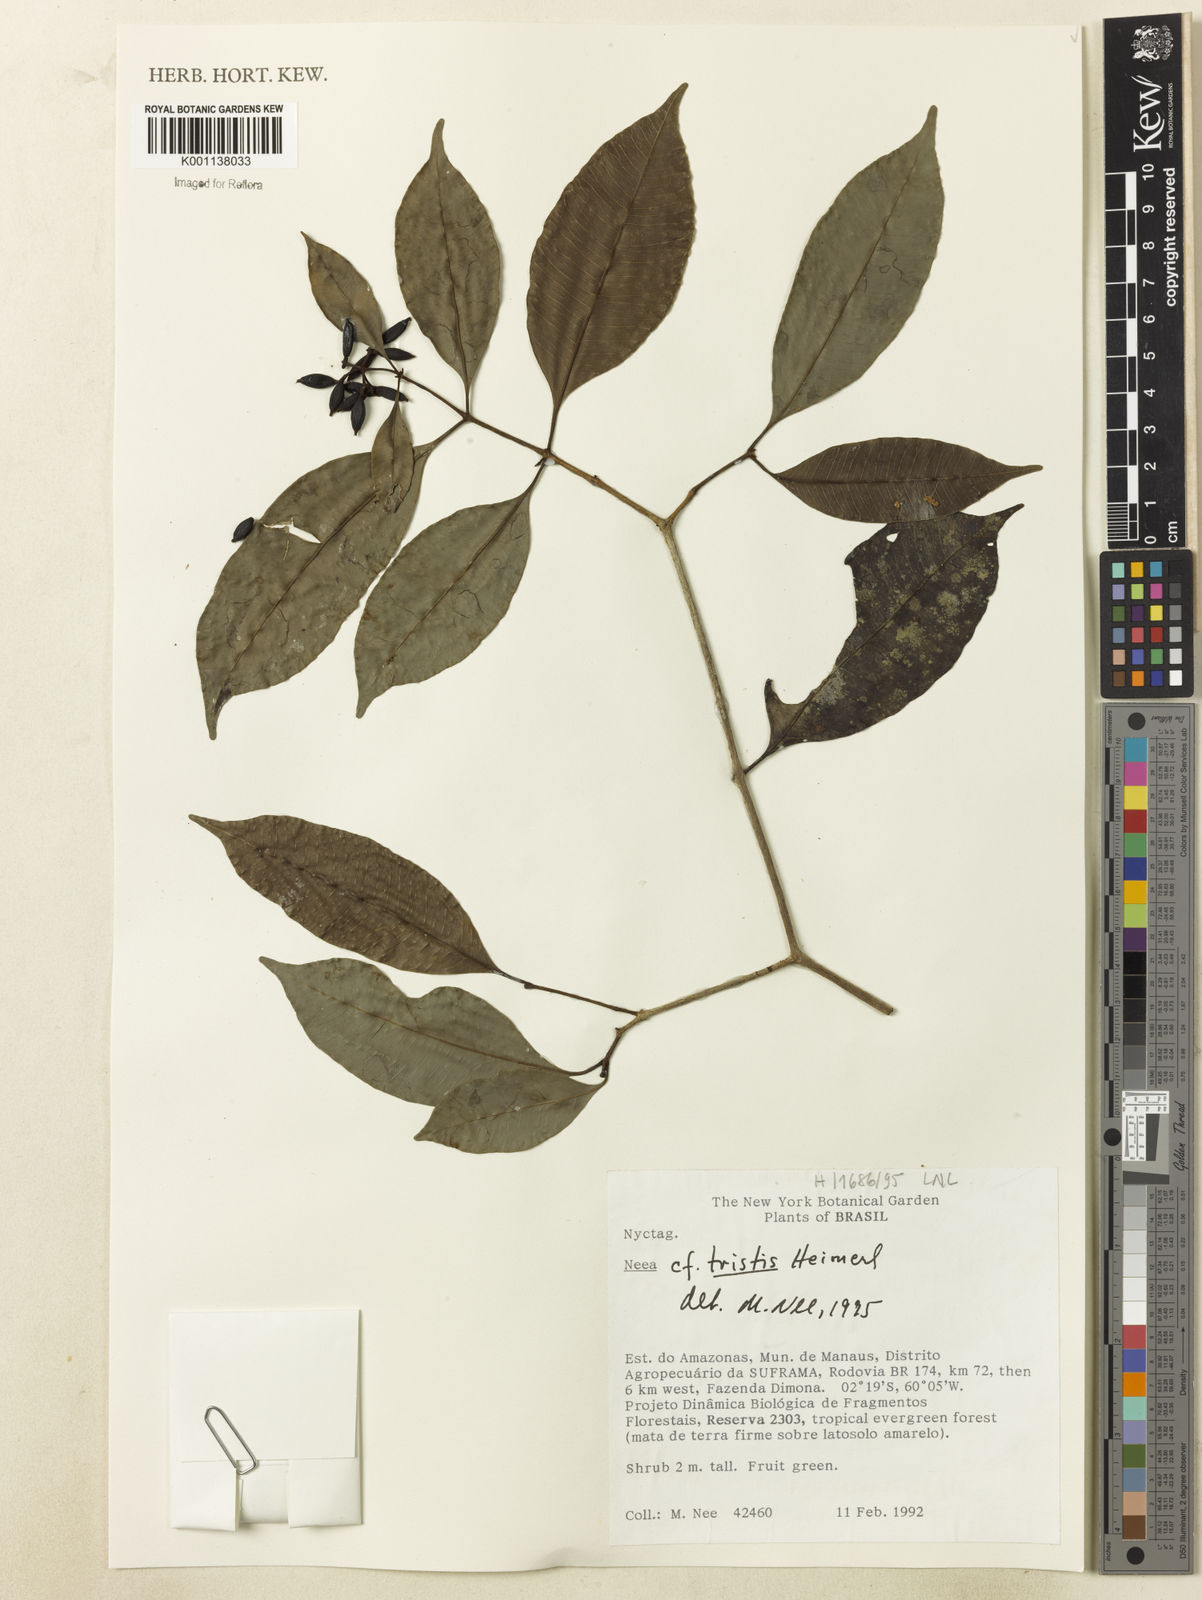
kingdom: Plantae
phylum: Tracheophyta
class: Magnoliopsida
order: Caryophyllales
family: Nyctaginaceae
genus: Neea
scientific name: Neea tristis
